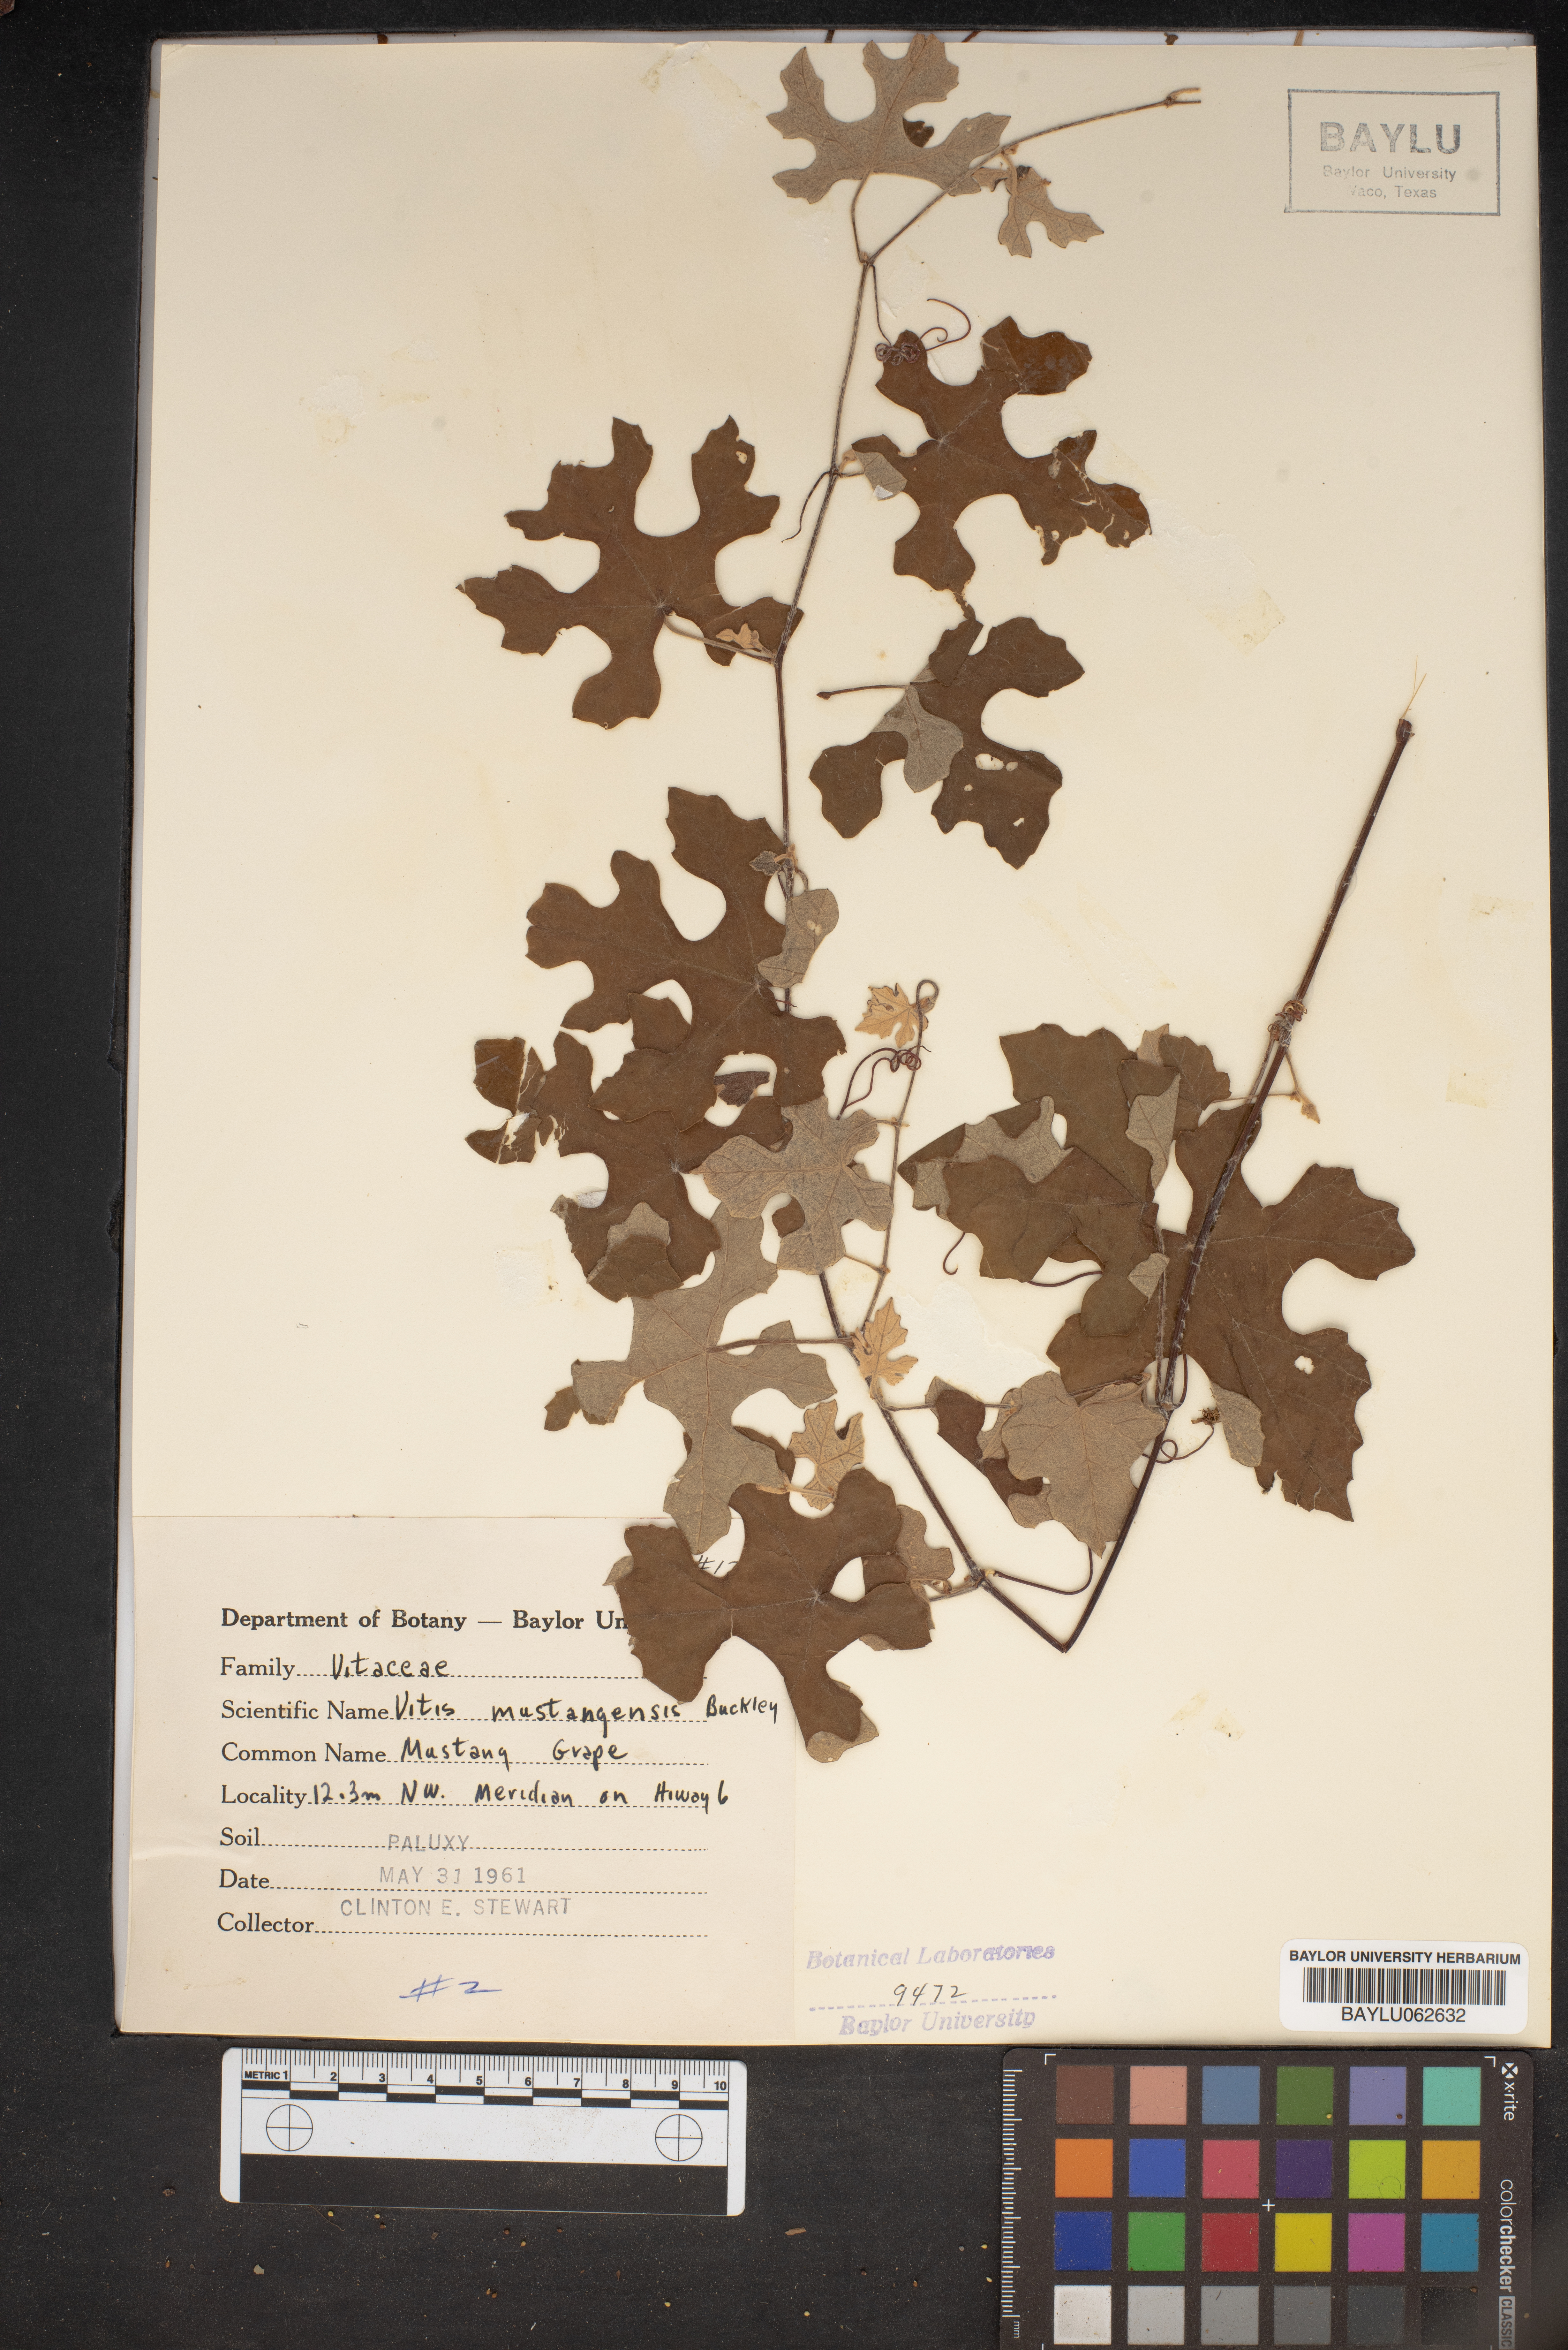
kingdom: Plantae
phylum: Tracheophyta
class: Magnoliopsida
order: Vitales
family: Vitaceae
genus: Vitis
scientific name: Vitis mustangensis
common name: Mustang grape
